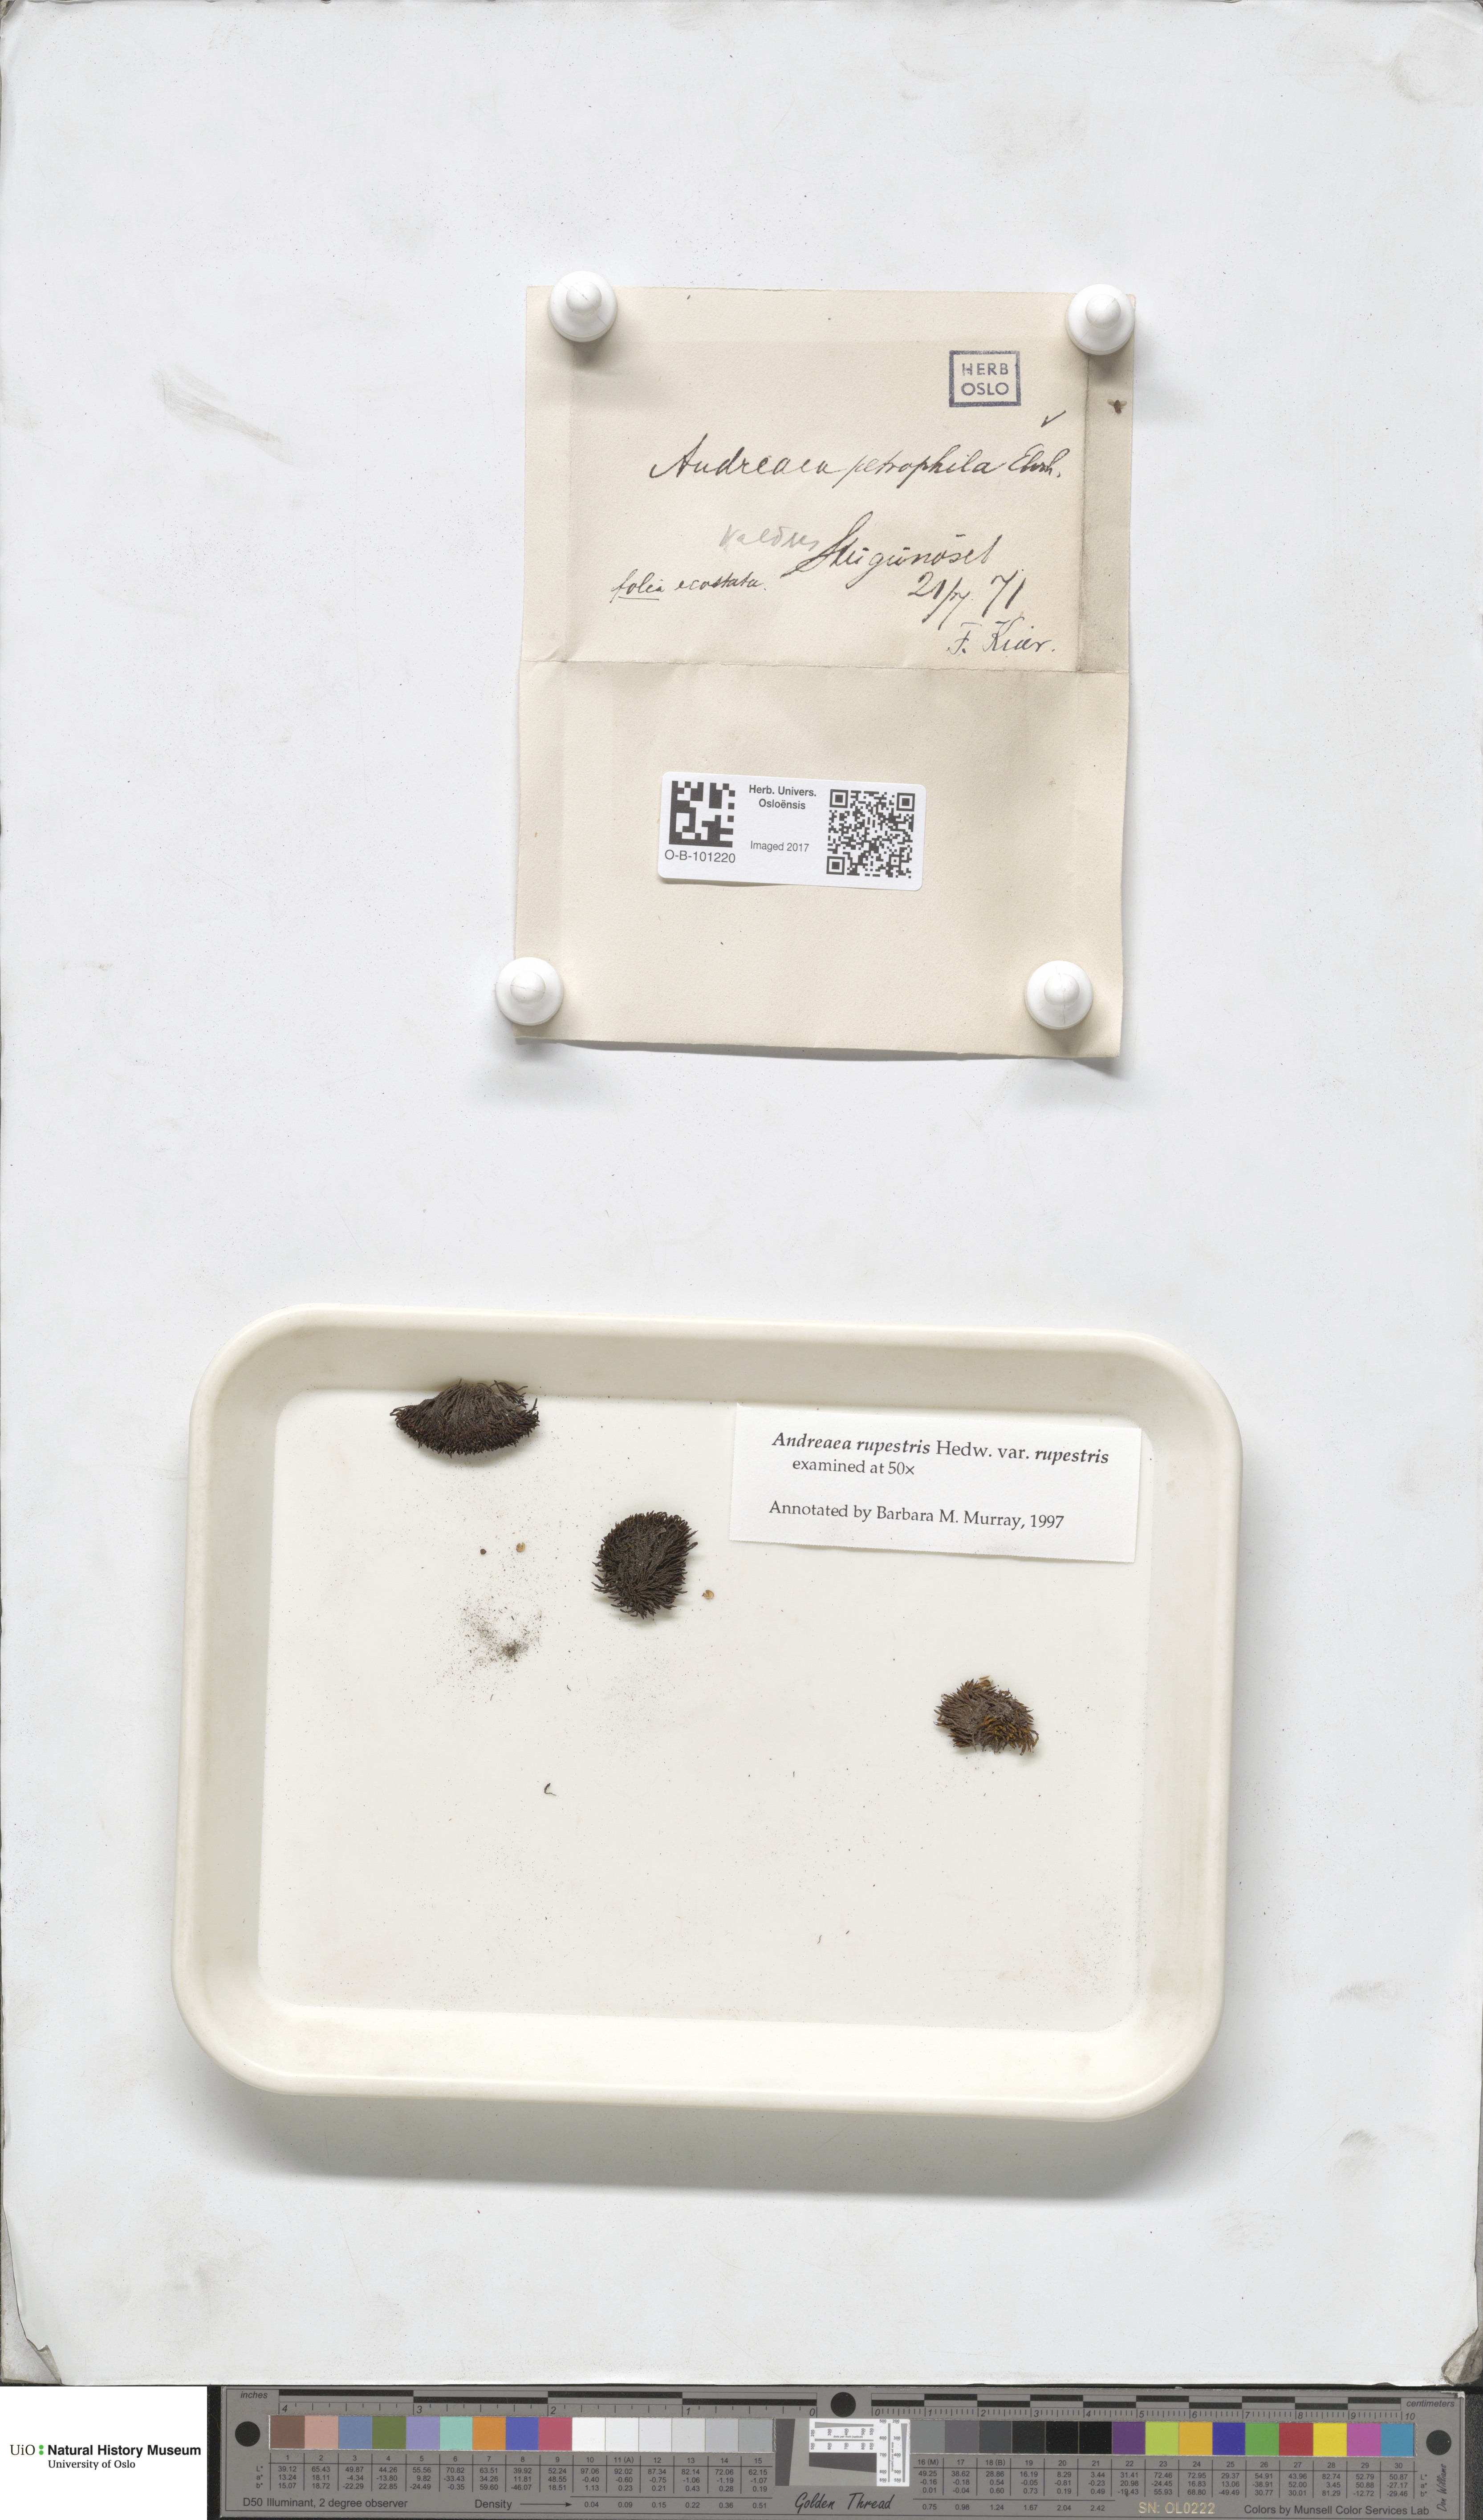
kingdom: Plantae
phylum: Bryophyta
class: Andreaeopsida
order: Andreaeales
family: Andreaeaceae
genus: Andreaea
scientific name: Andreaea rupestris
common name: Black rock moss
